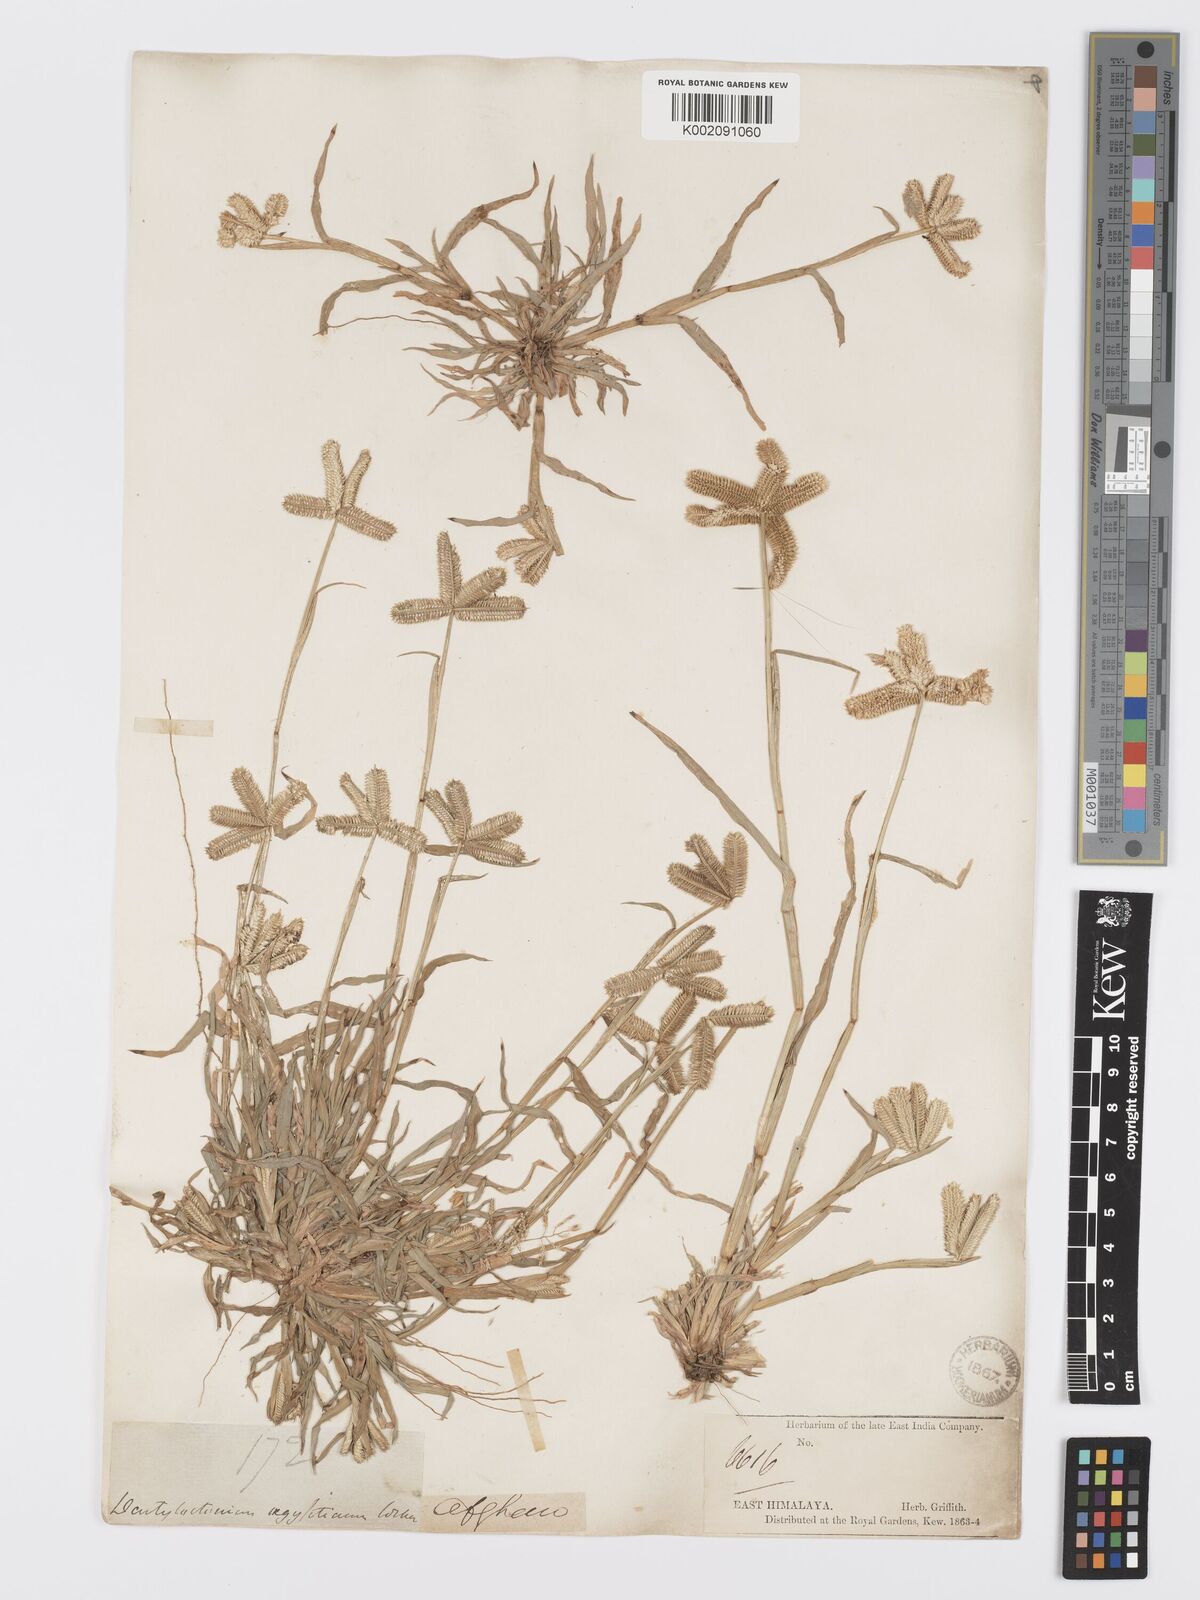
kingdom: Plantae
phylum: Tracheophyta
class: Liliopsida
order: Poales
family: Poaceae
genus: Dactyloctenium
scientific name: Dactyloctenium aegyptium
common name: Egyptian grass
